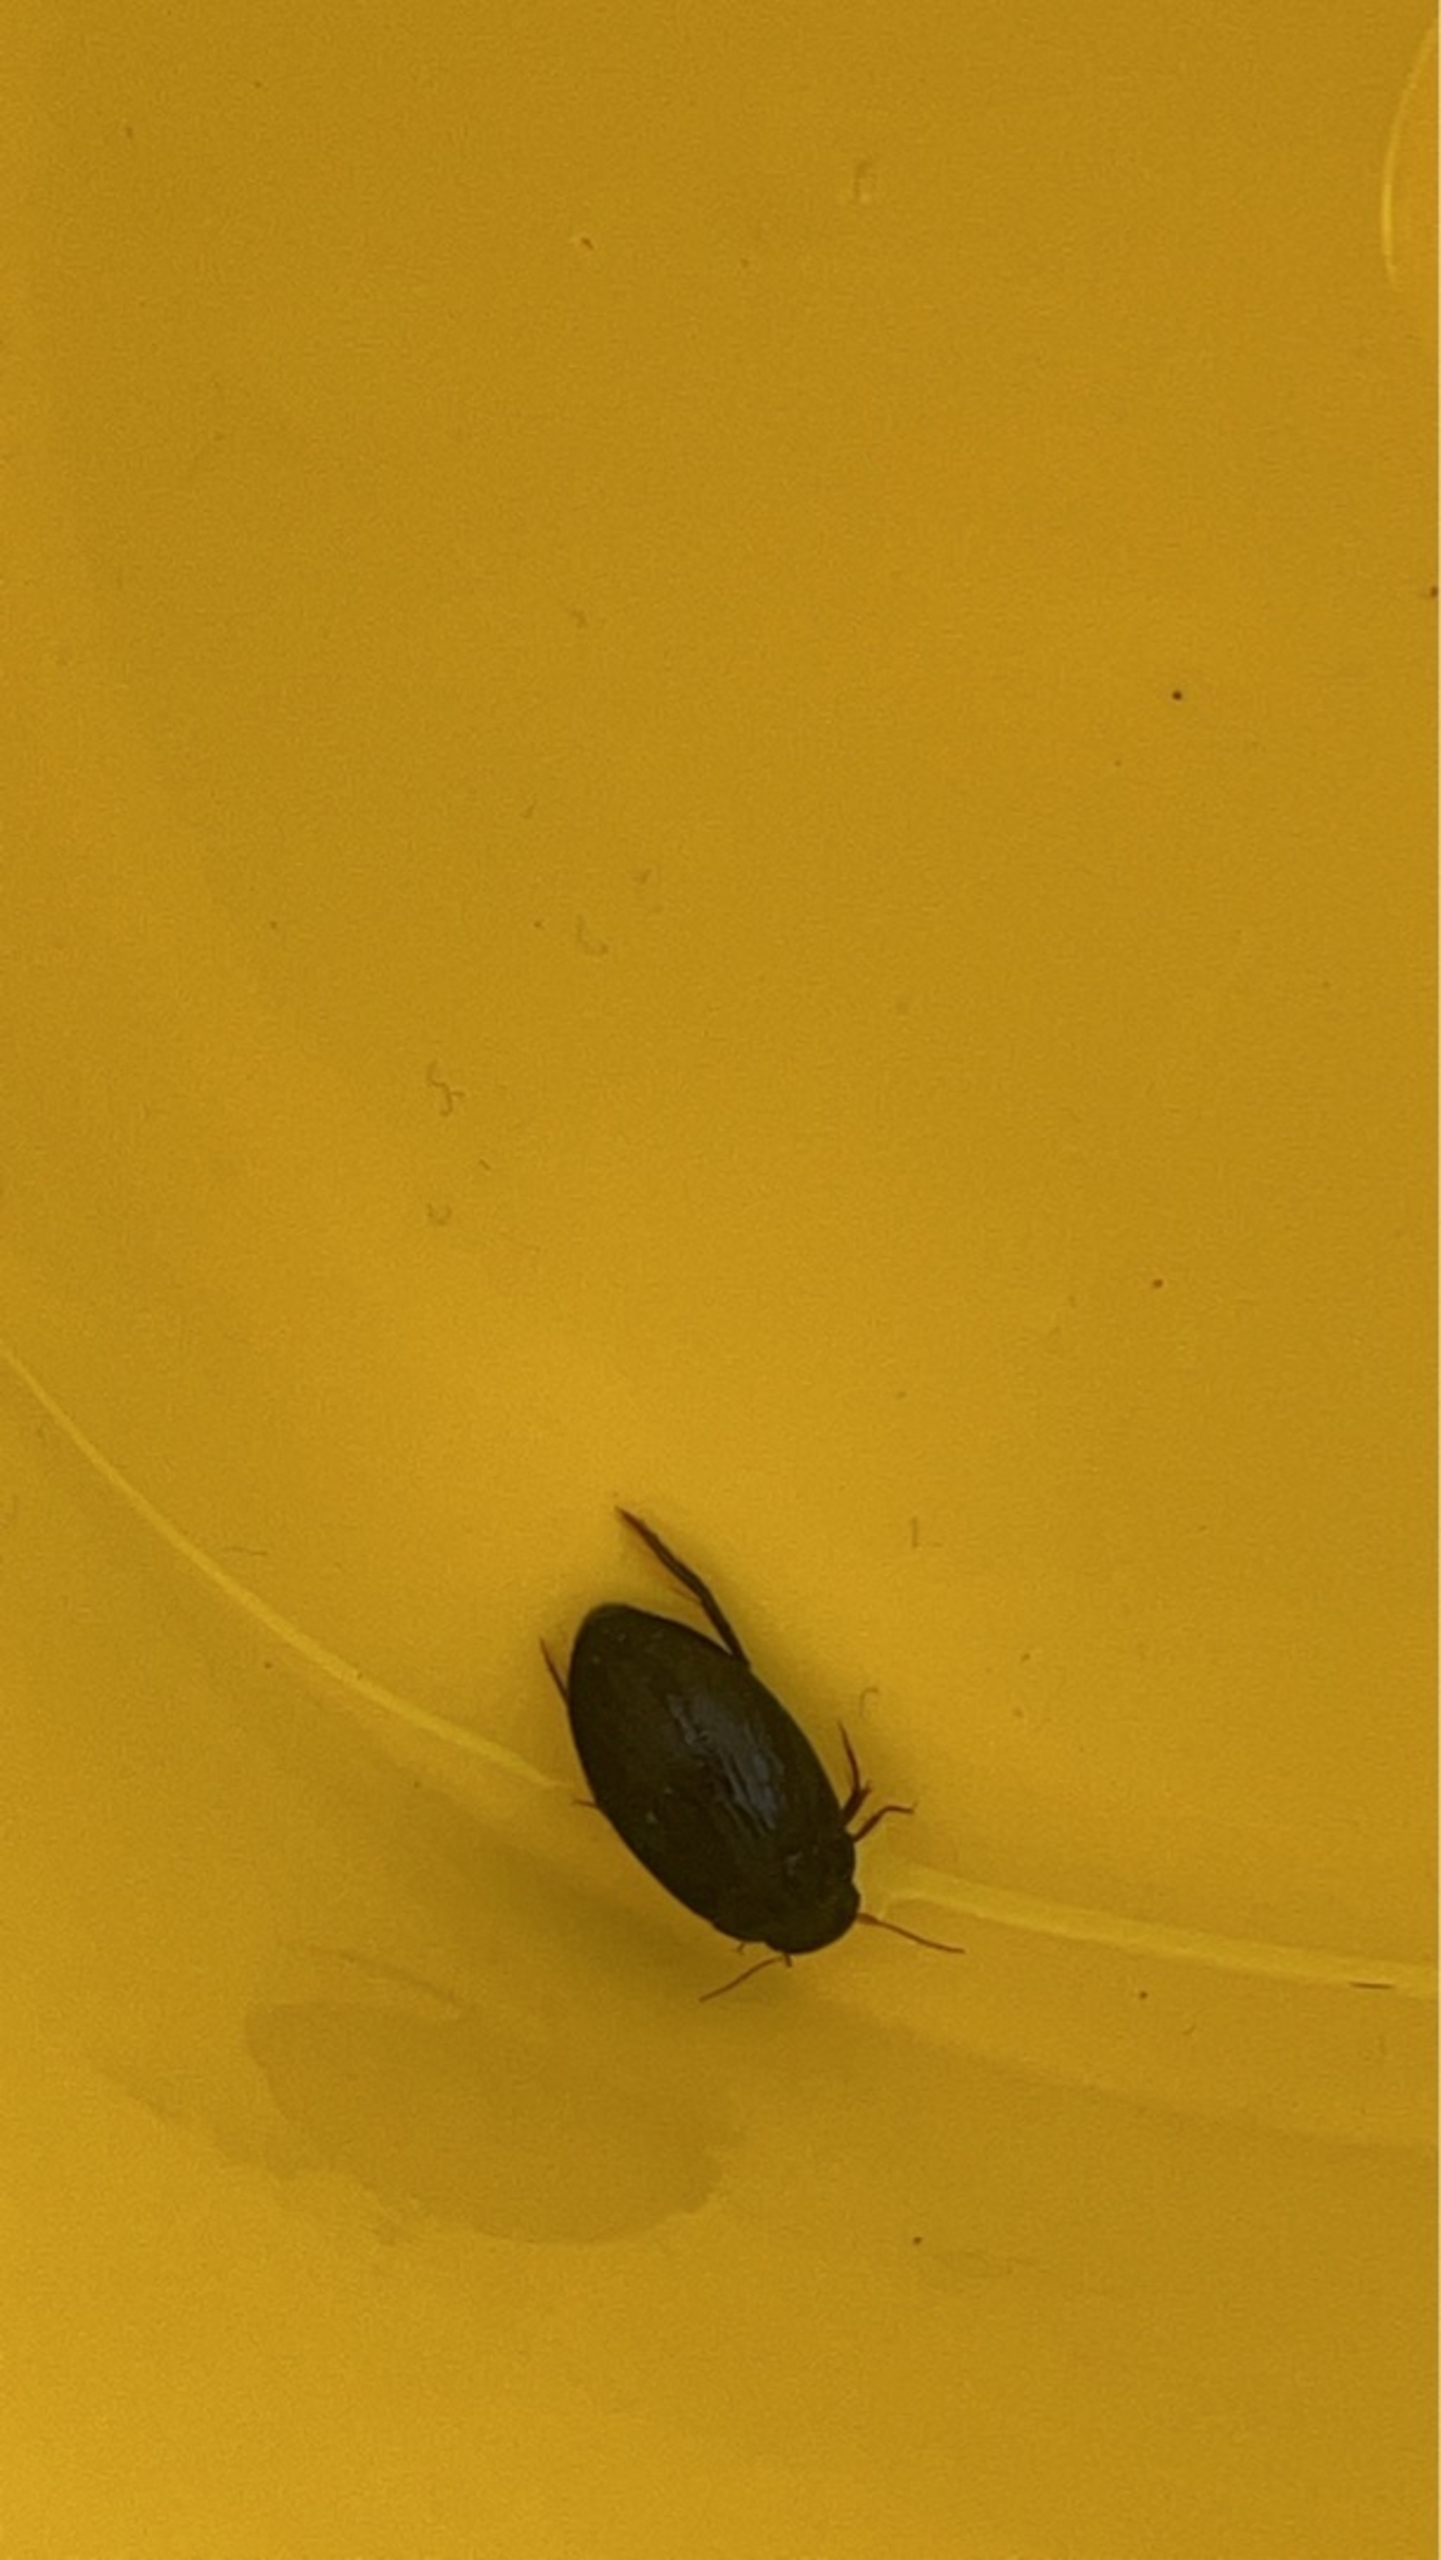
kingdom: Animalia
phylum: Arthropoda
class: Insecta
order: Coleoptera
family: Dytiscidae
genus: Agabus
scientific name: Agabus bipustulatus
